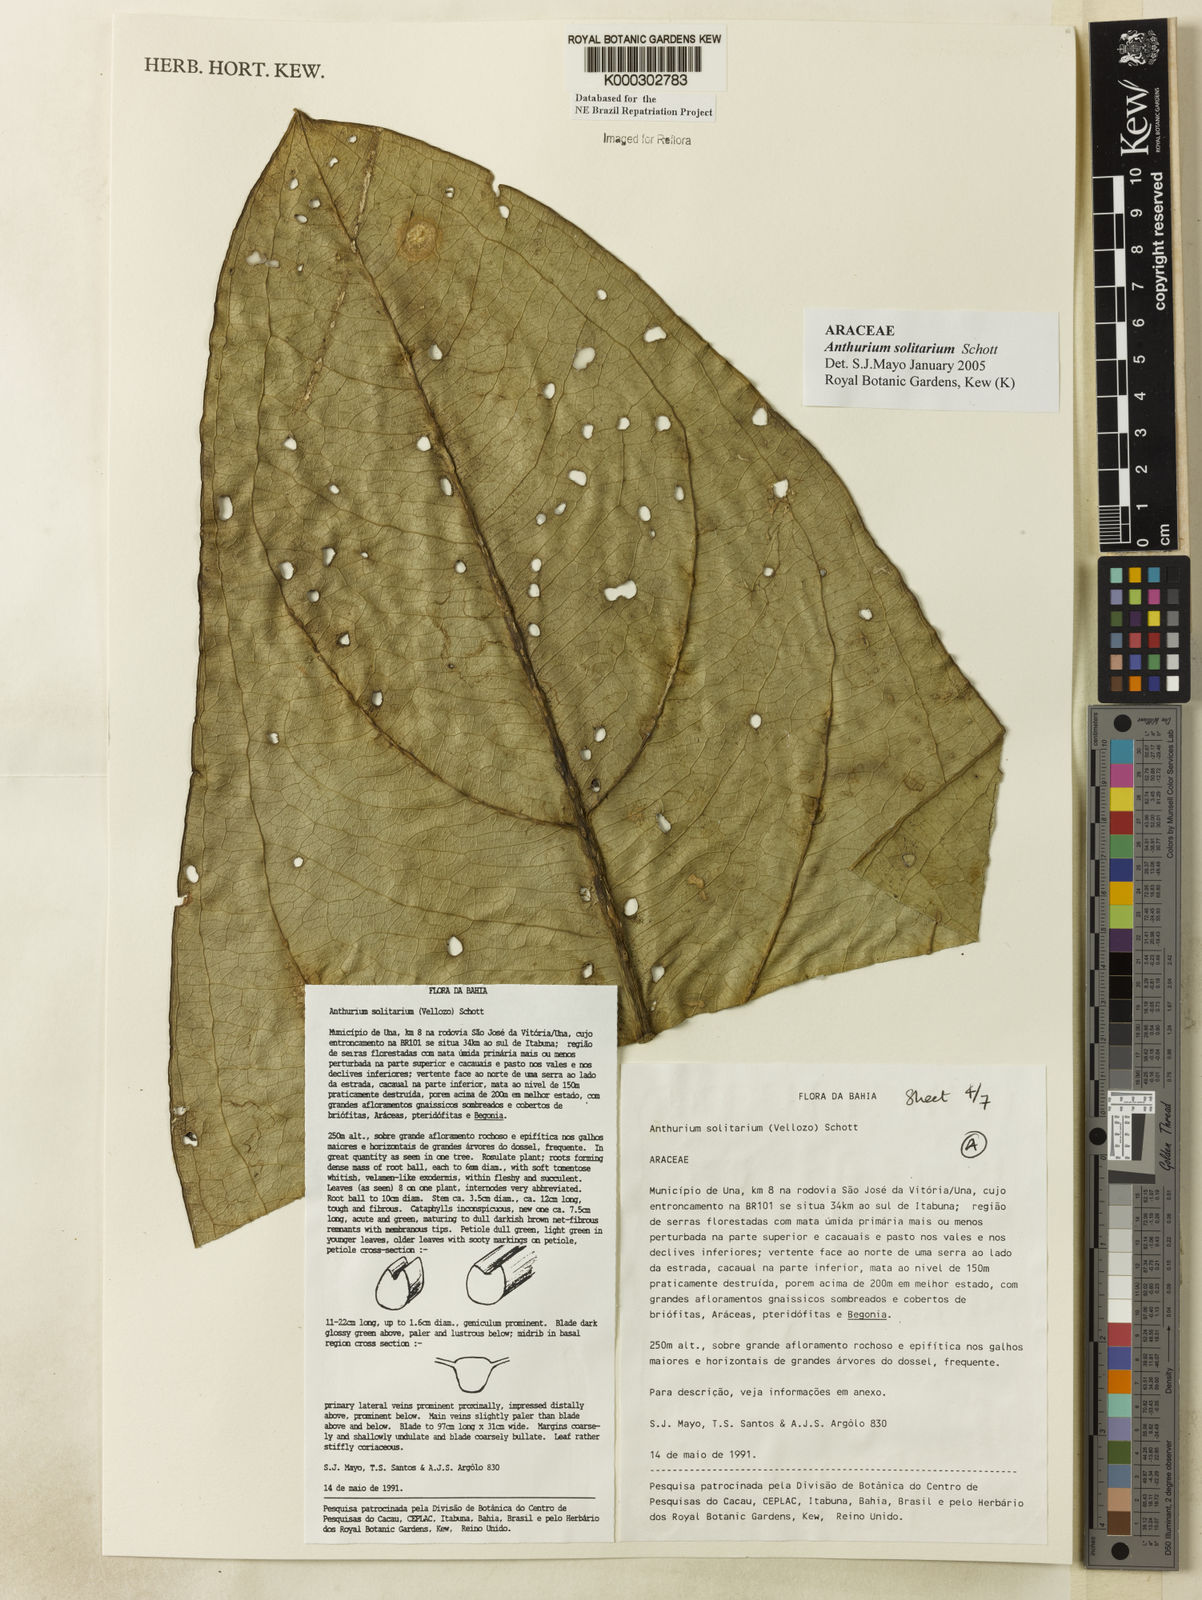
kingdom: Plantae
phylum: Tracheophyta
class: Liliopsida
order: Alismatales
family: Araceae
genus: Anthurium
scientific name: Anthurium solitarium
